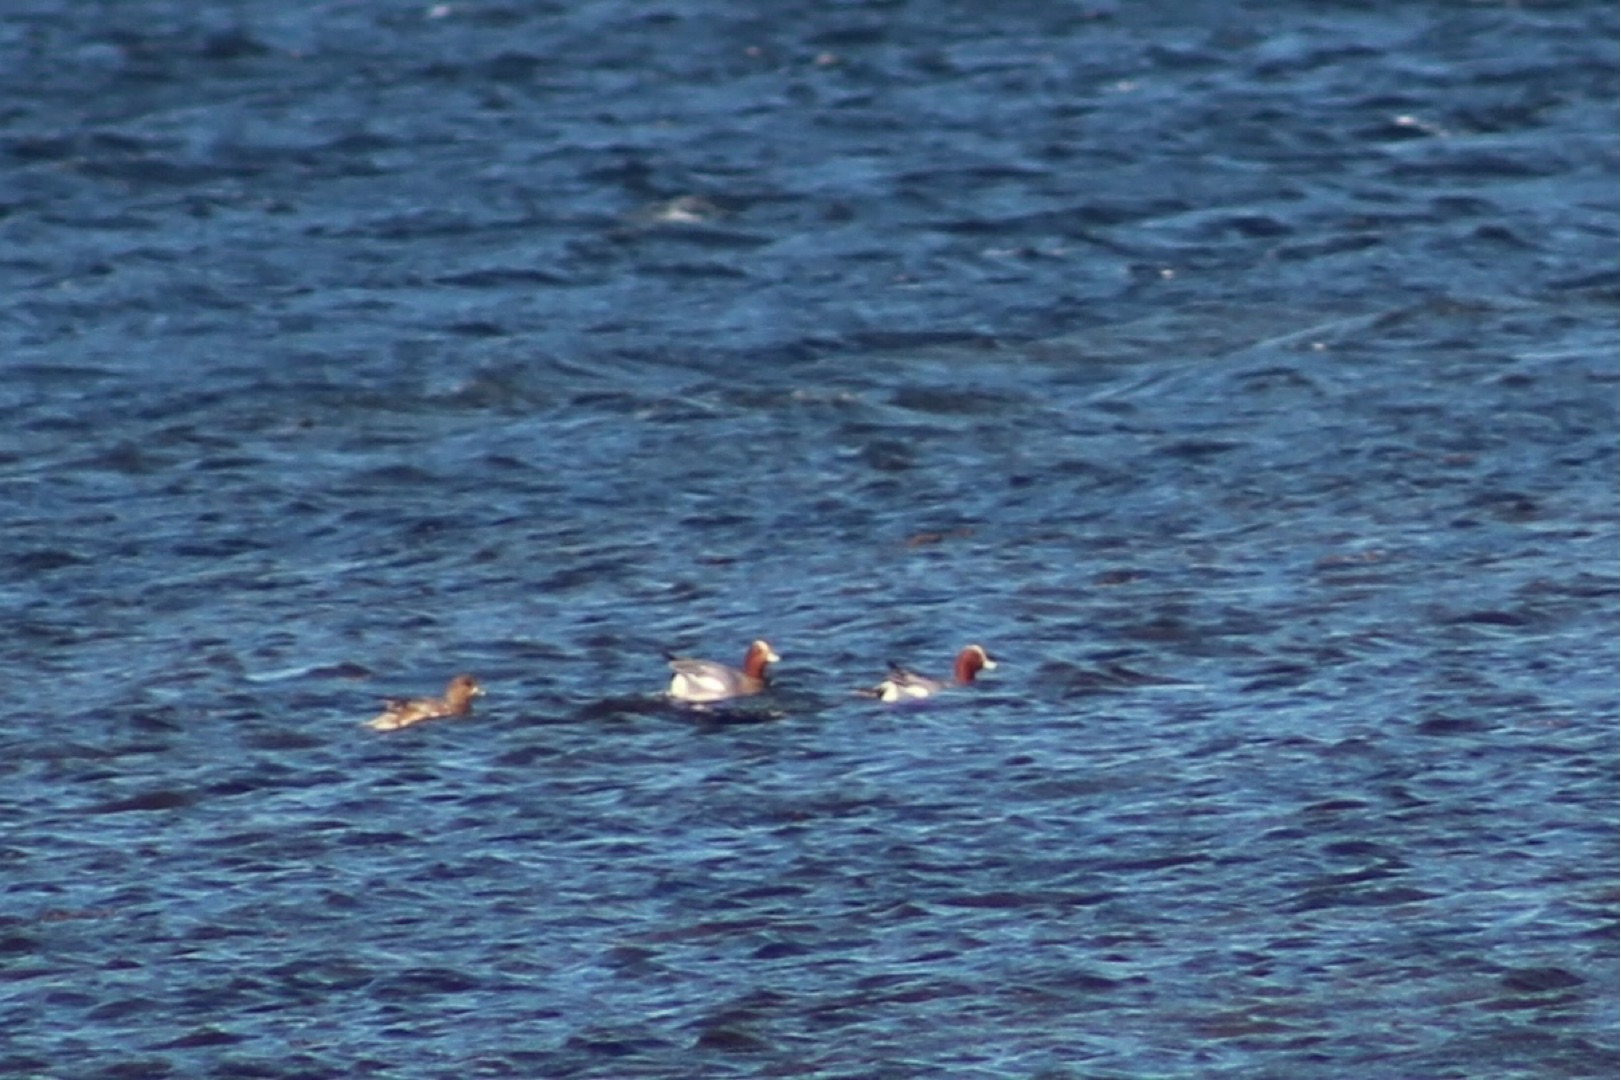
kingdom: Animalia
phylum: Chordata
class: Aves
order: Anseriformes
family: Anatidae
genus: Mareca
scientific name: Mareca penelope
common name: Pibeand
